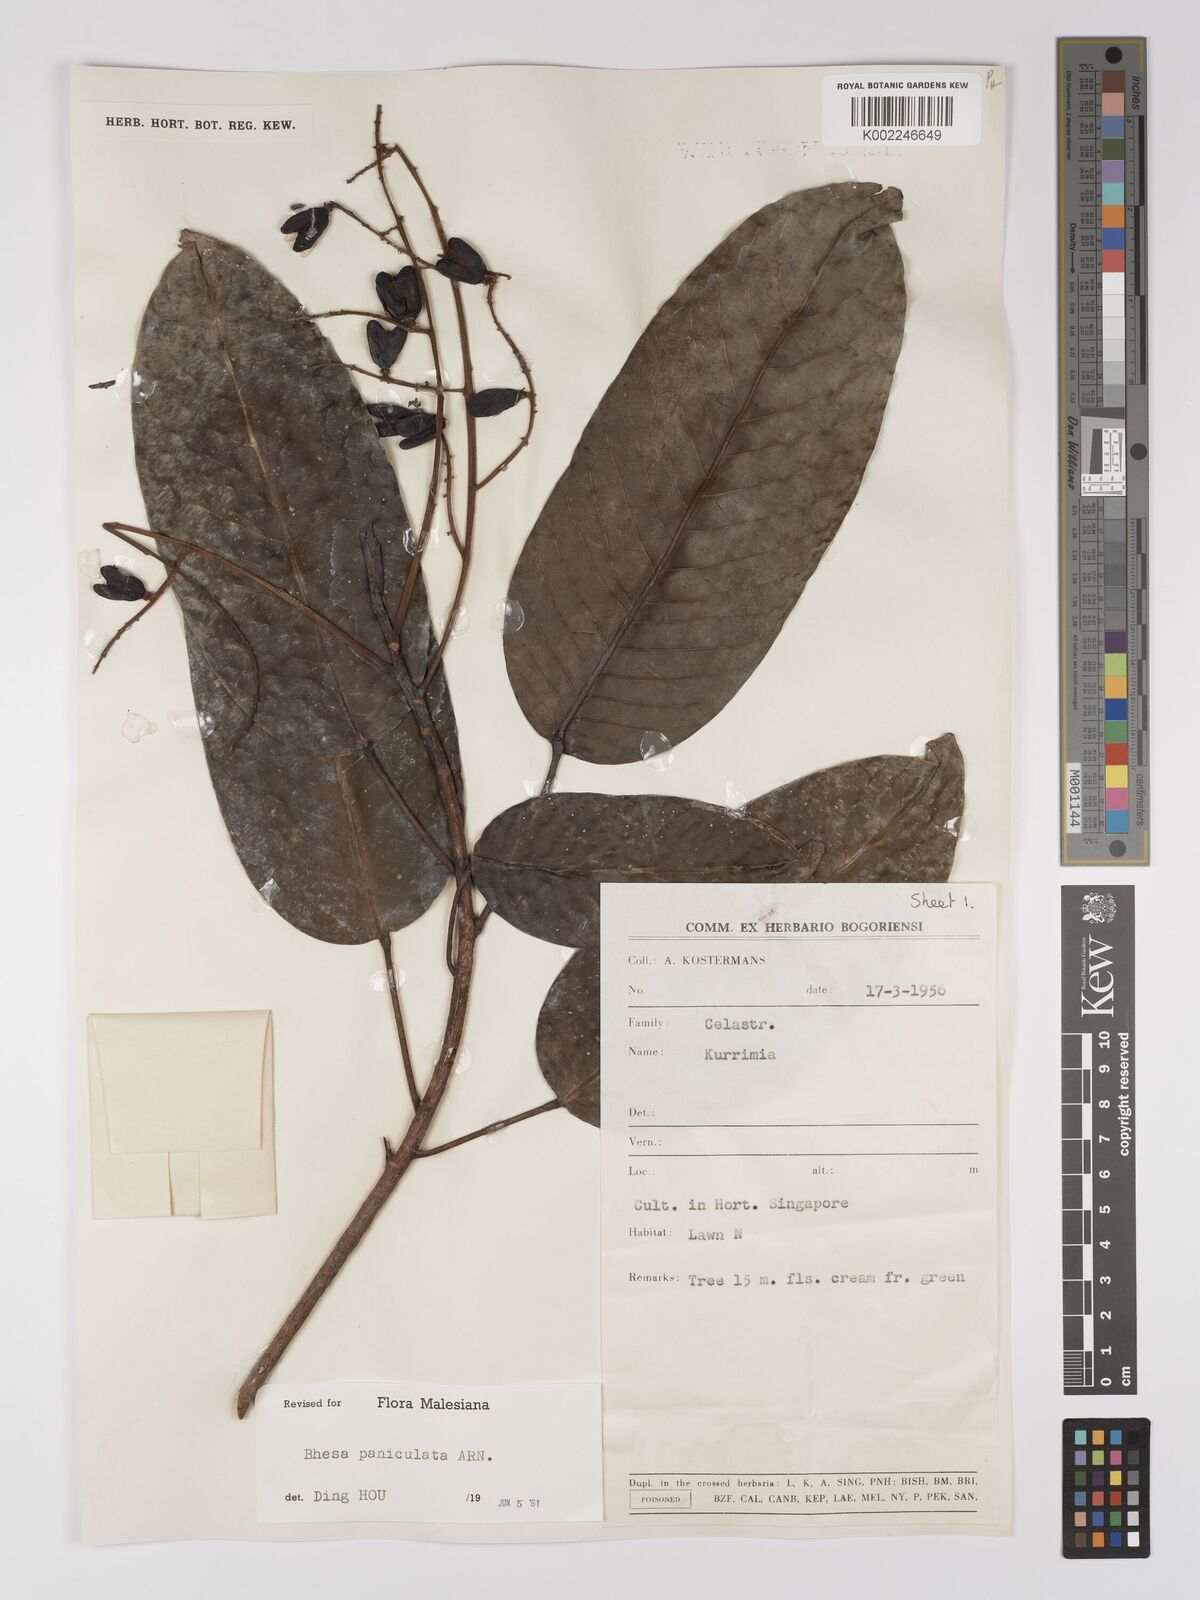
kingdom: Plantae
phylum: Tracheophyta
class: Magnoliopsida
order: Malpighiales
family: Centroplacaceae
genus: Bhesa
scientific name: Bhesa paniculata
